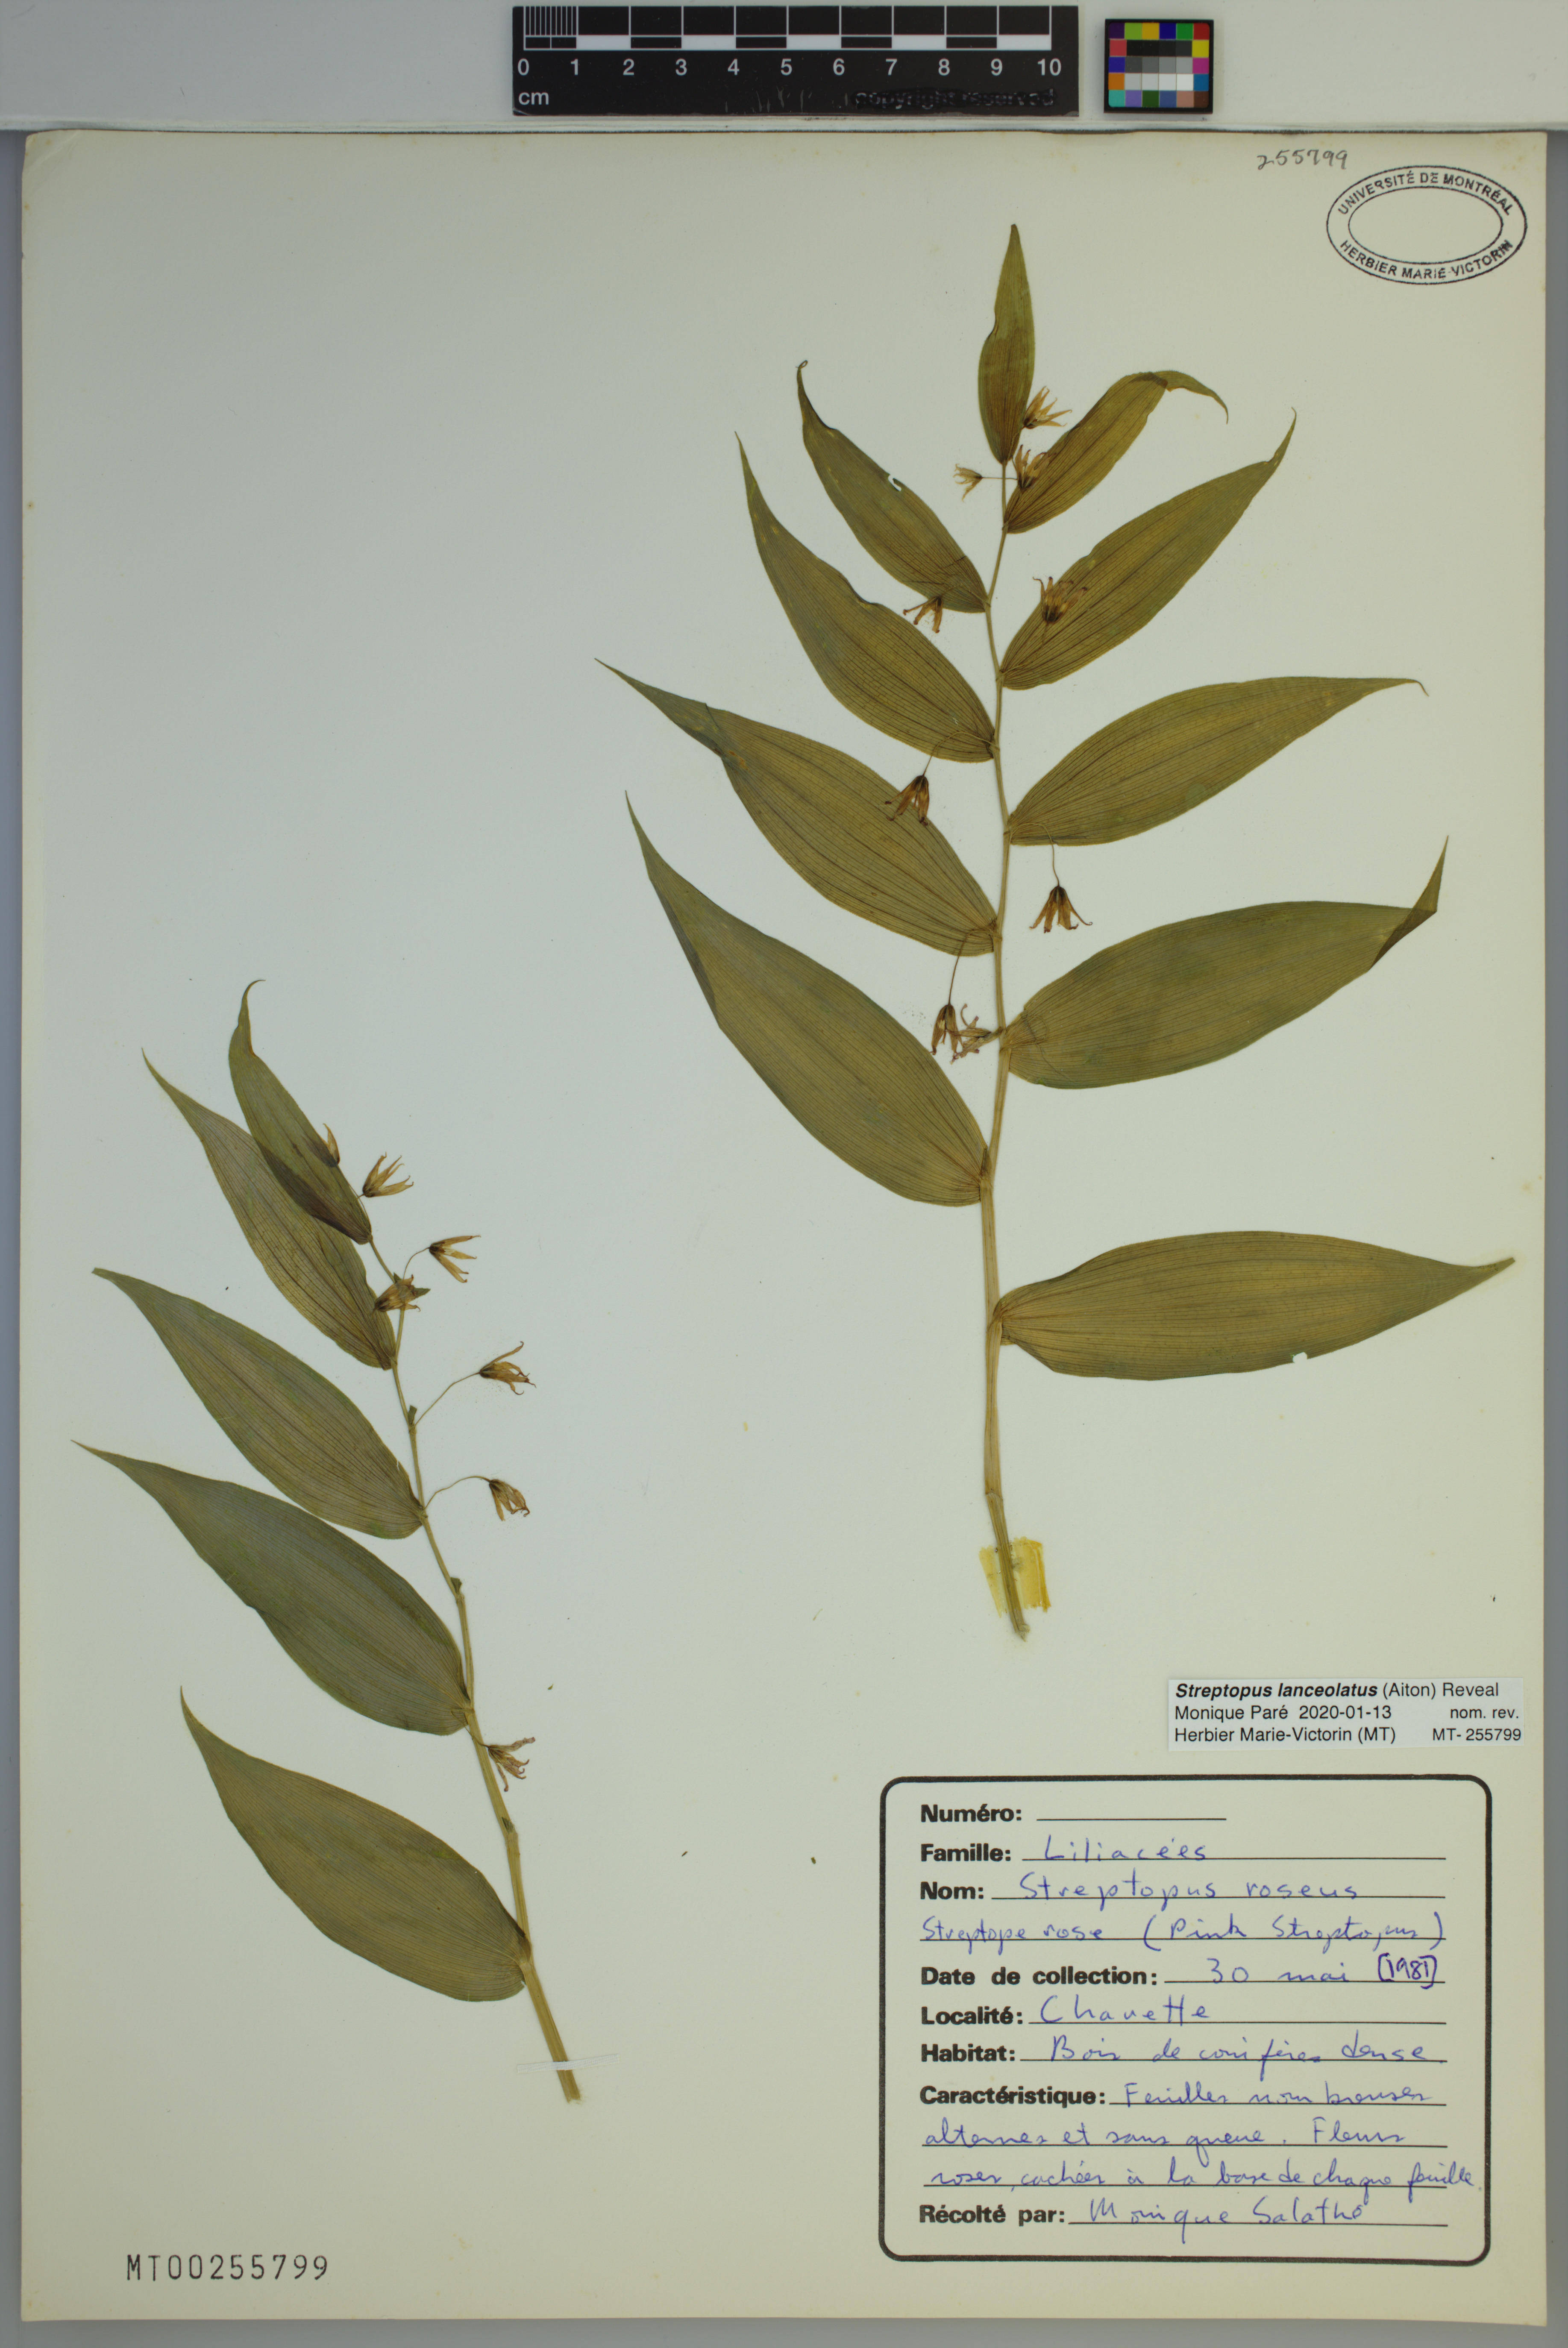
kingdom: Plantae
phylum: Tracheophyta
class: Liliopsida
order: Liliales
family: Liliaceae
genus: Streptopus
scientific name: Streptopus lanceolatus
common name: Rose mandarin
